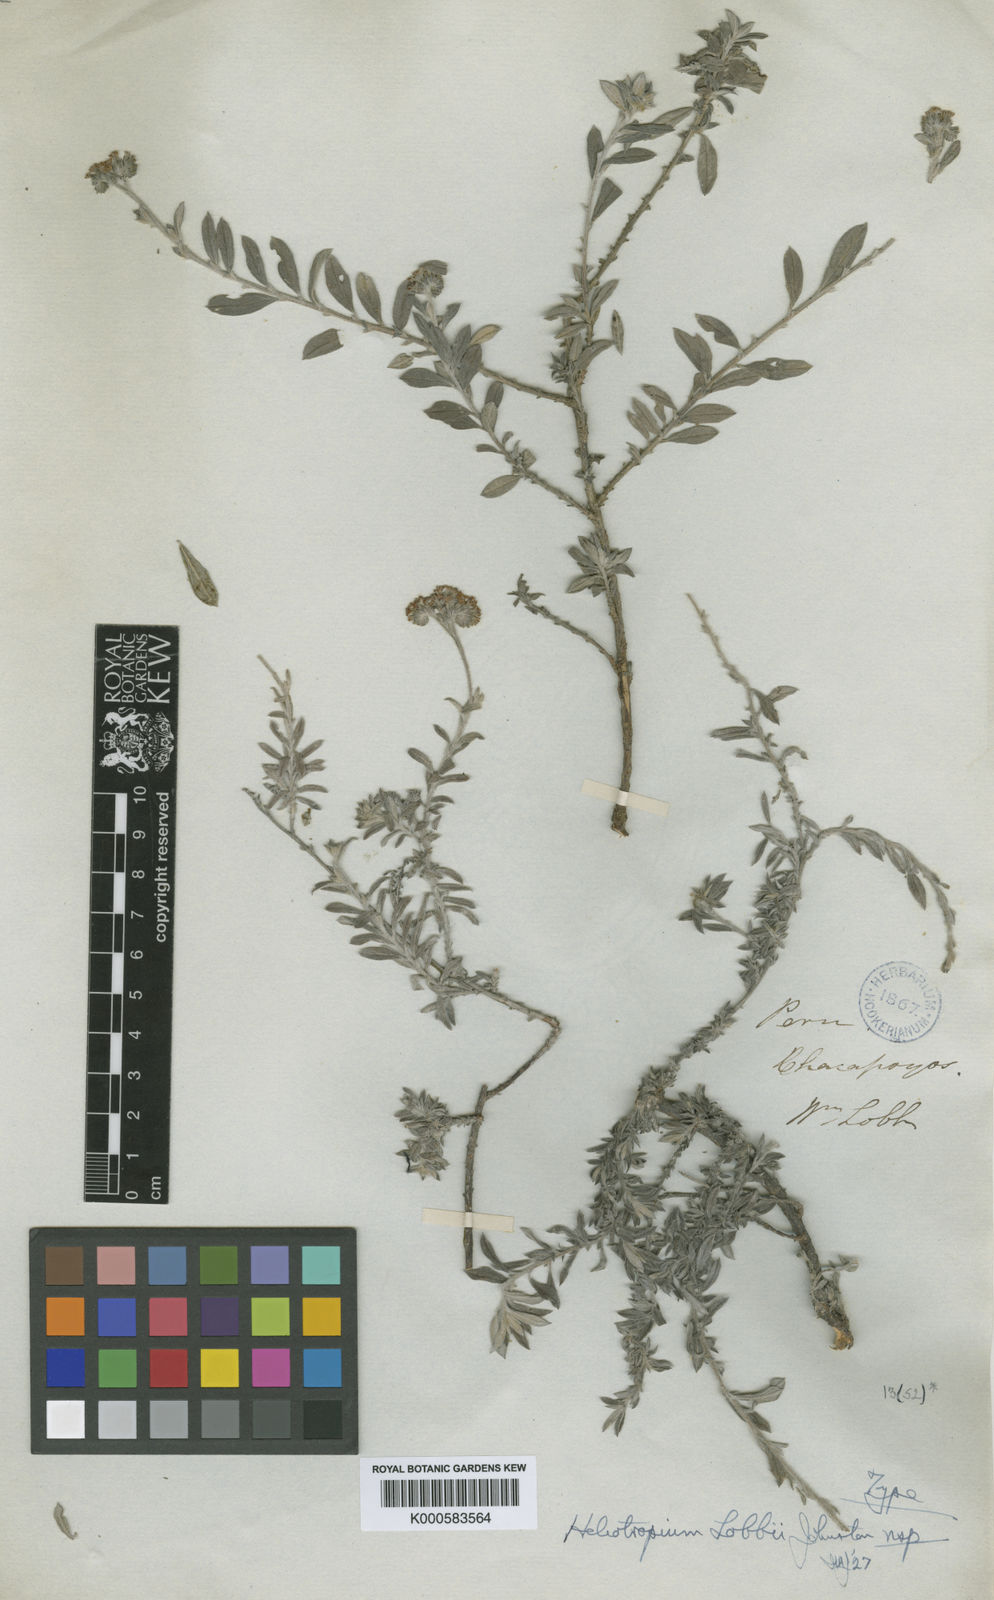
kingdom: Plantae
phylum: Tracheophyta
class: Magnoliopsida
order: Boraginales
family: Heliotropiaceae
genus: Euploca
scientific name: Euploca lobbii
